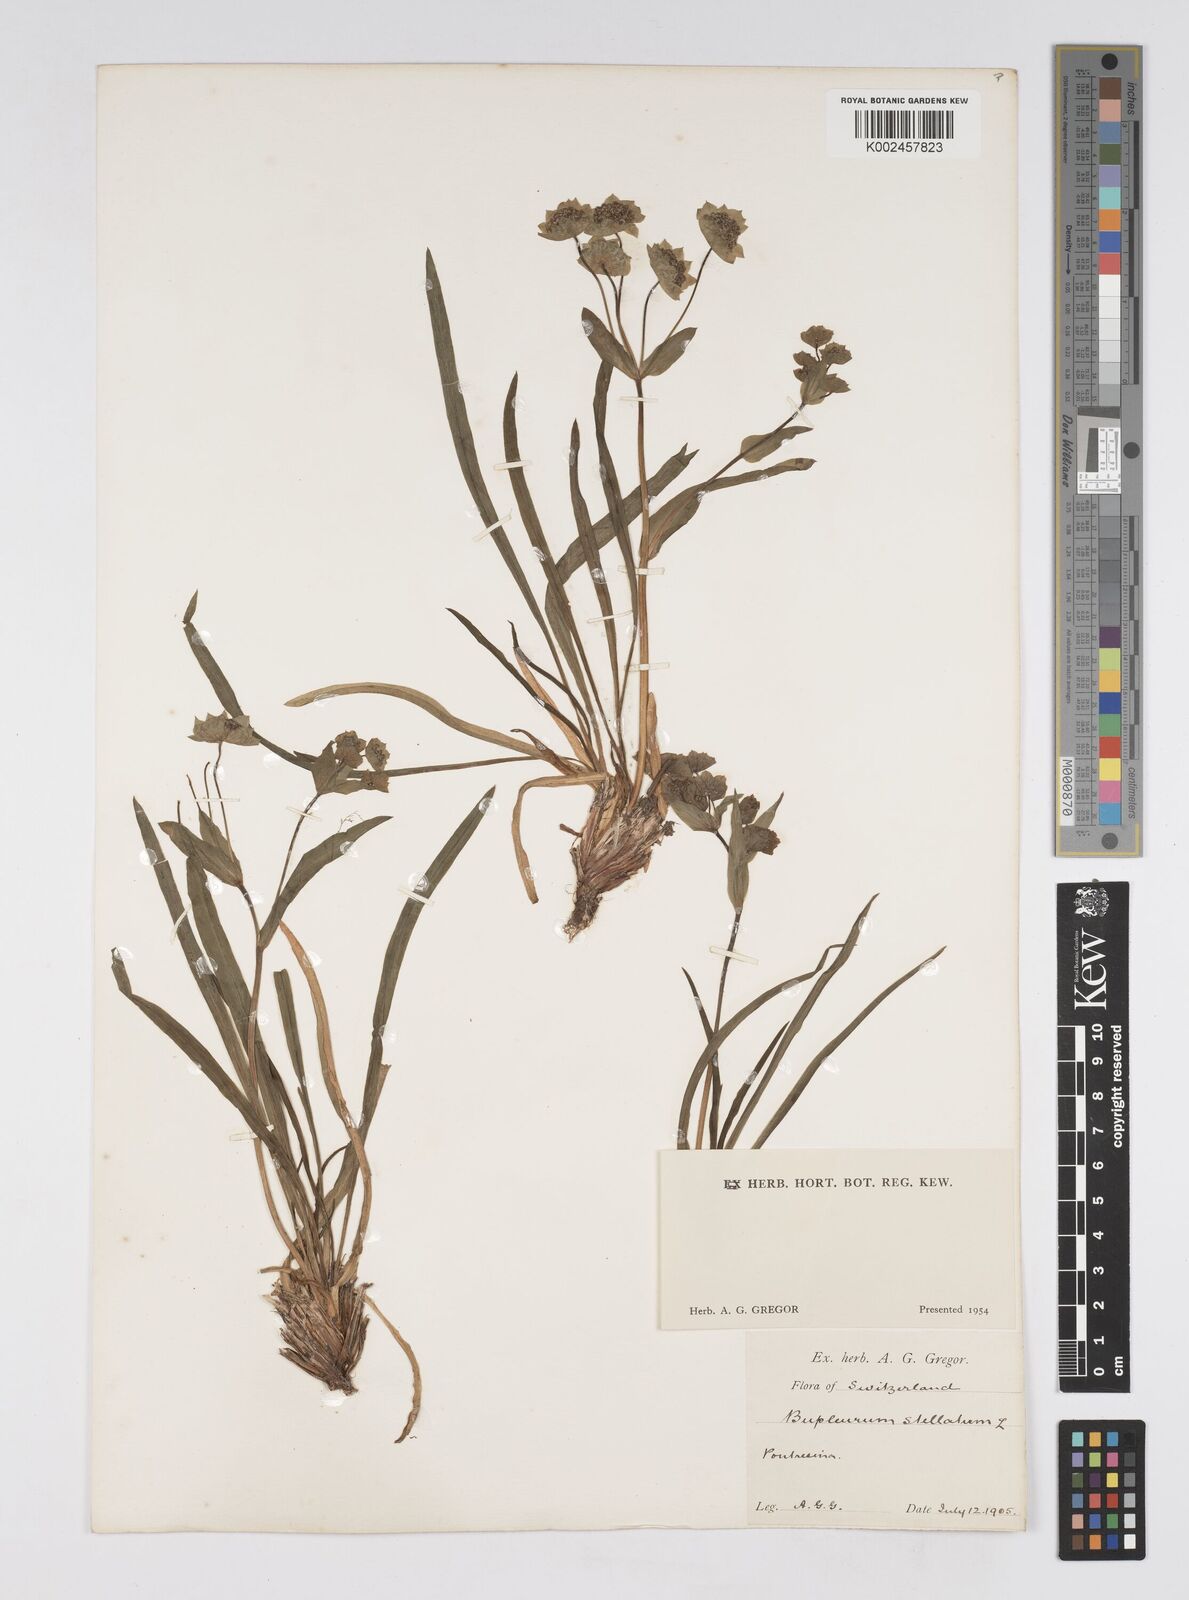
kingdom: Plantae
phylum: Tracheophyta
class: Magnoliopsida
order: Apiales
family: Apiaceae
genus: Bupleurum
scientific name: Bupleurum stellatum
